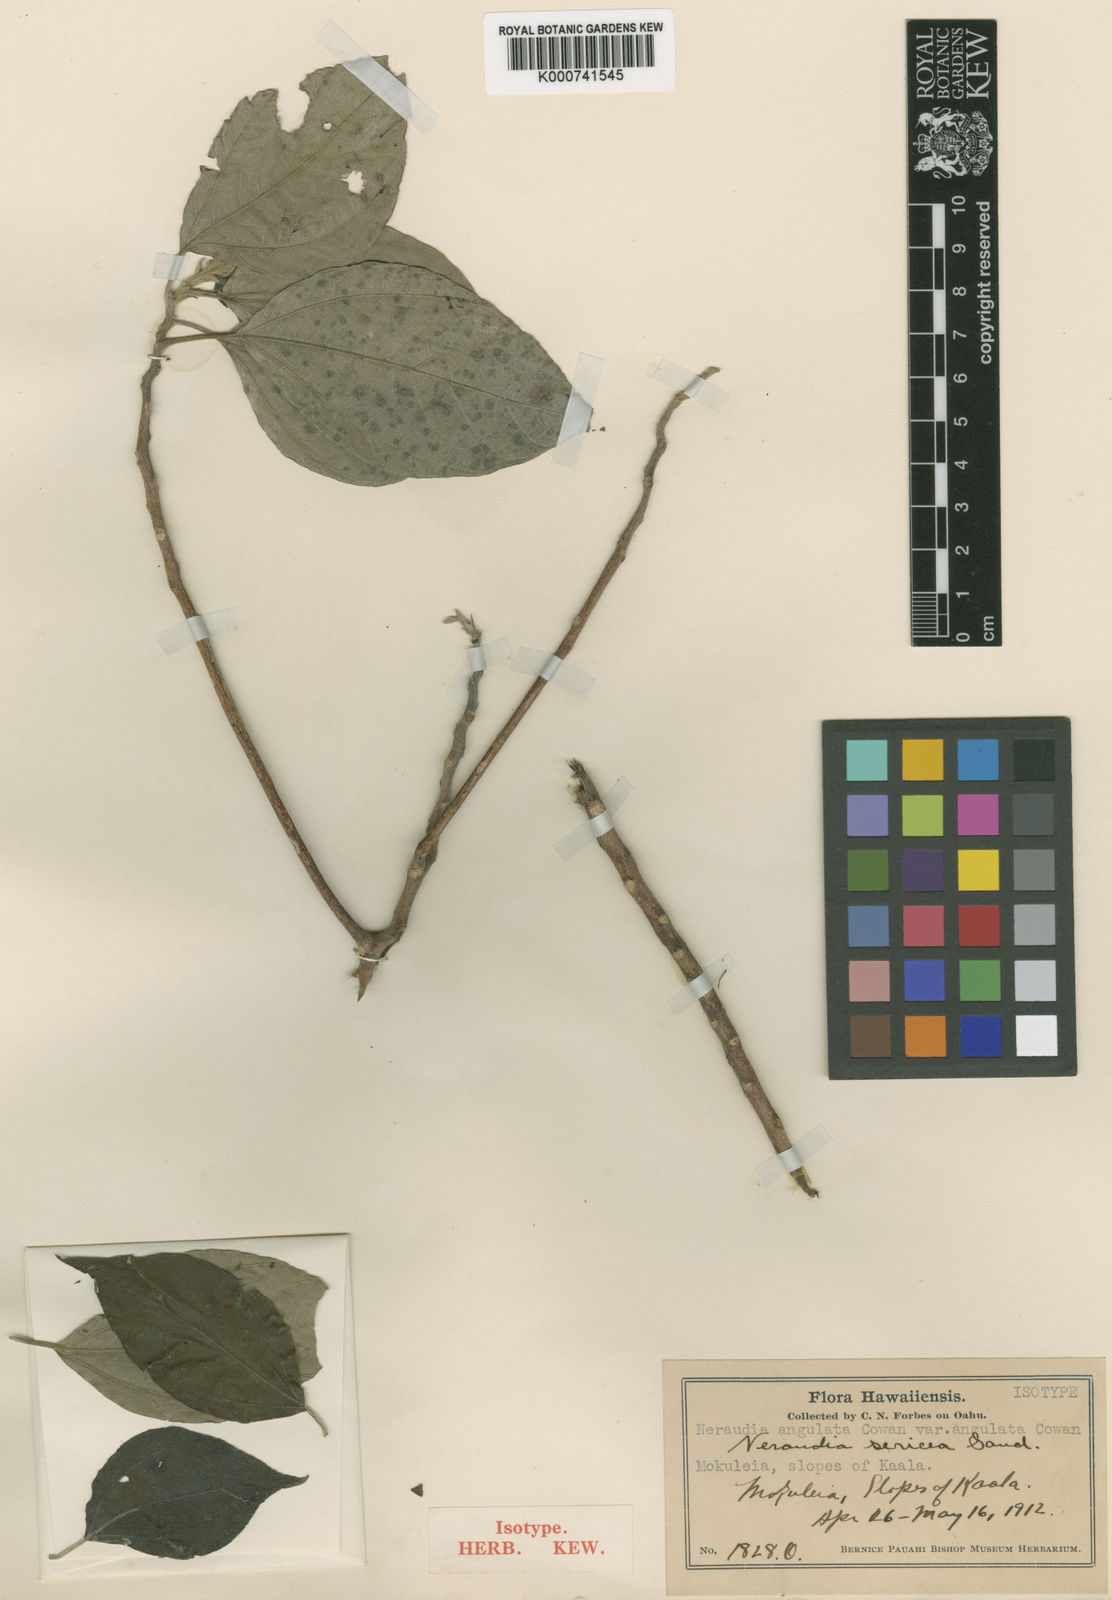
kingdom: Plantae
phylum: Tracheophyta
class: Magnoliopsida
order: Rosales
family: Urticaceae
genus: Neraudia
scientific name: Neraudia angulata
